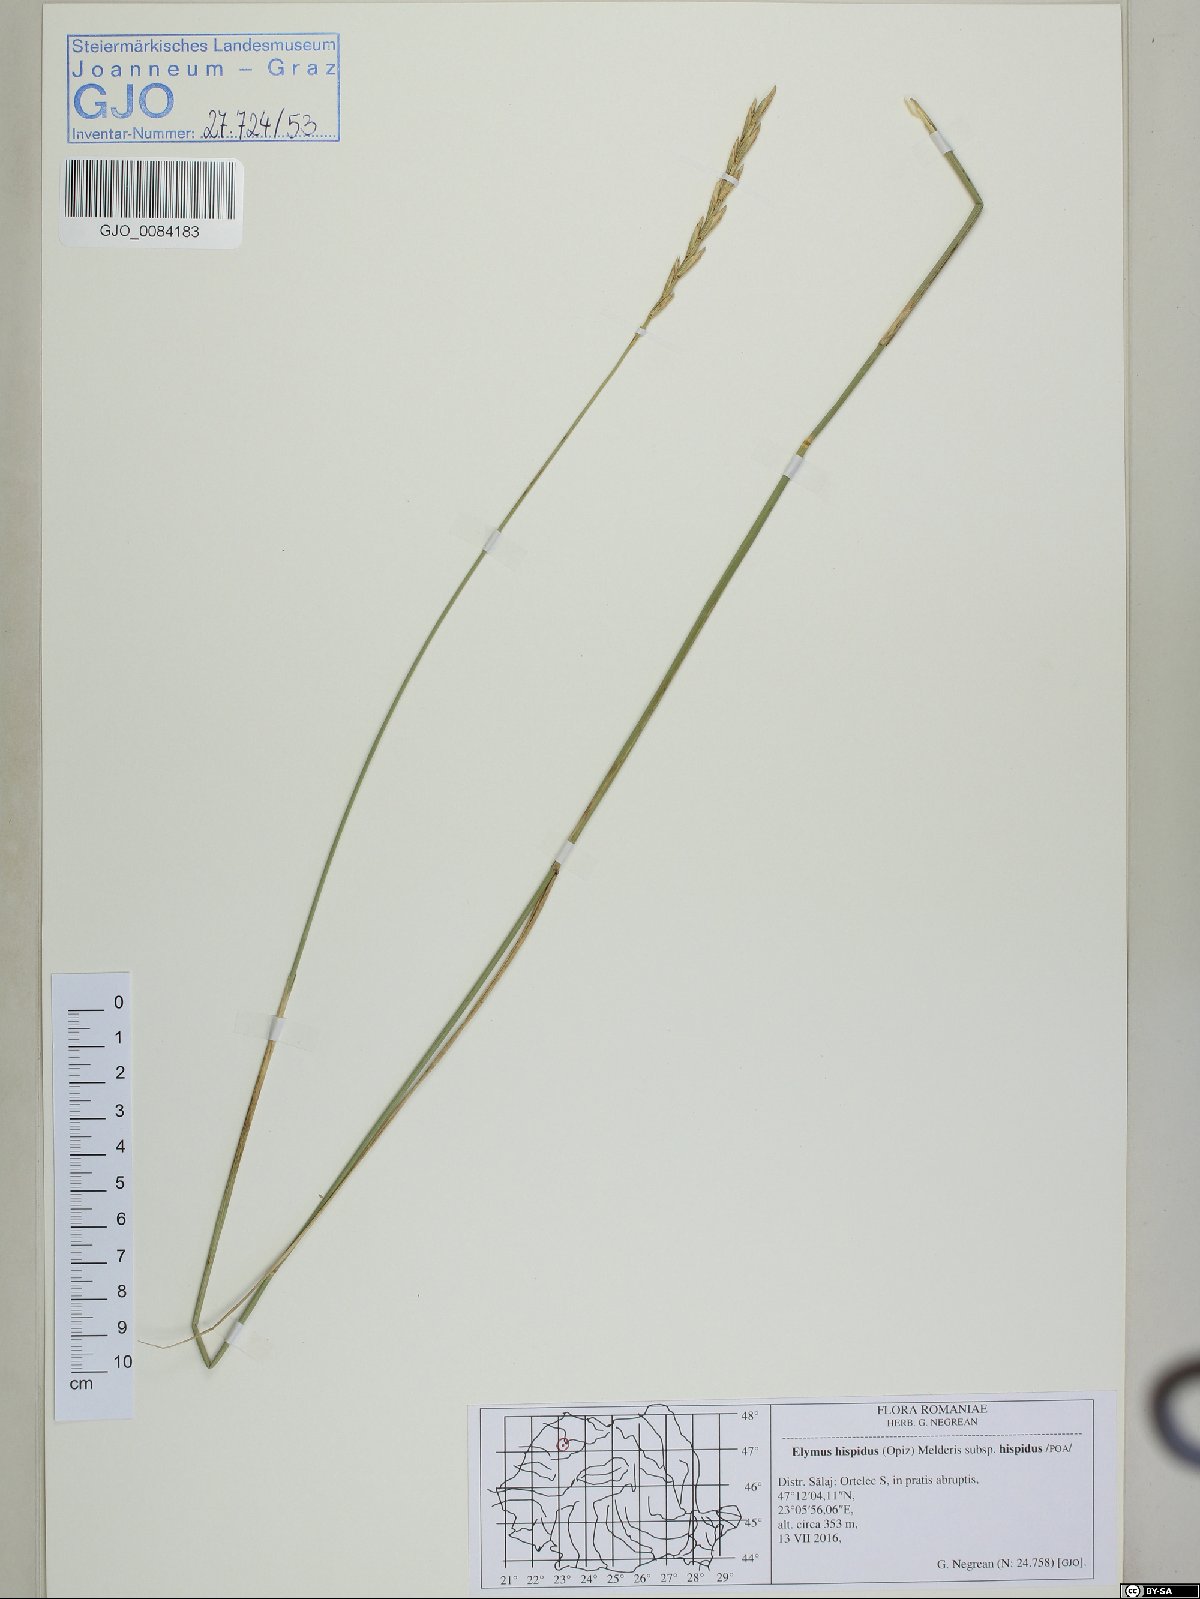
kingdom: Plantae
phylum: Tracheophyta
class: Liliopsida
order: Poales
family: Poaceae
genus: Thinopyrum
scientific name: Thinopyrum intermedium
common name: Intermediate wheatgrass
